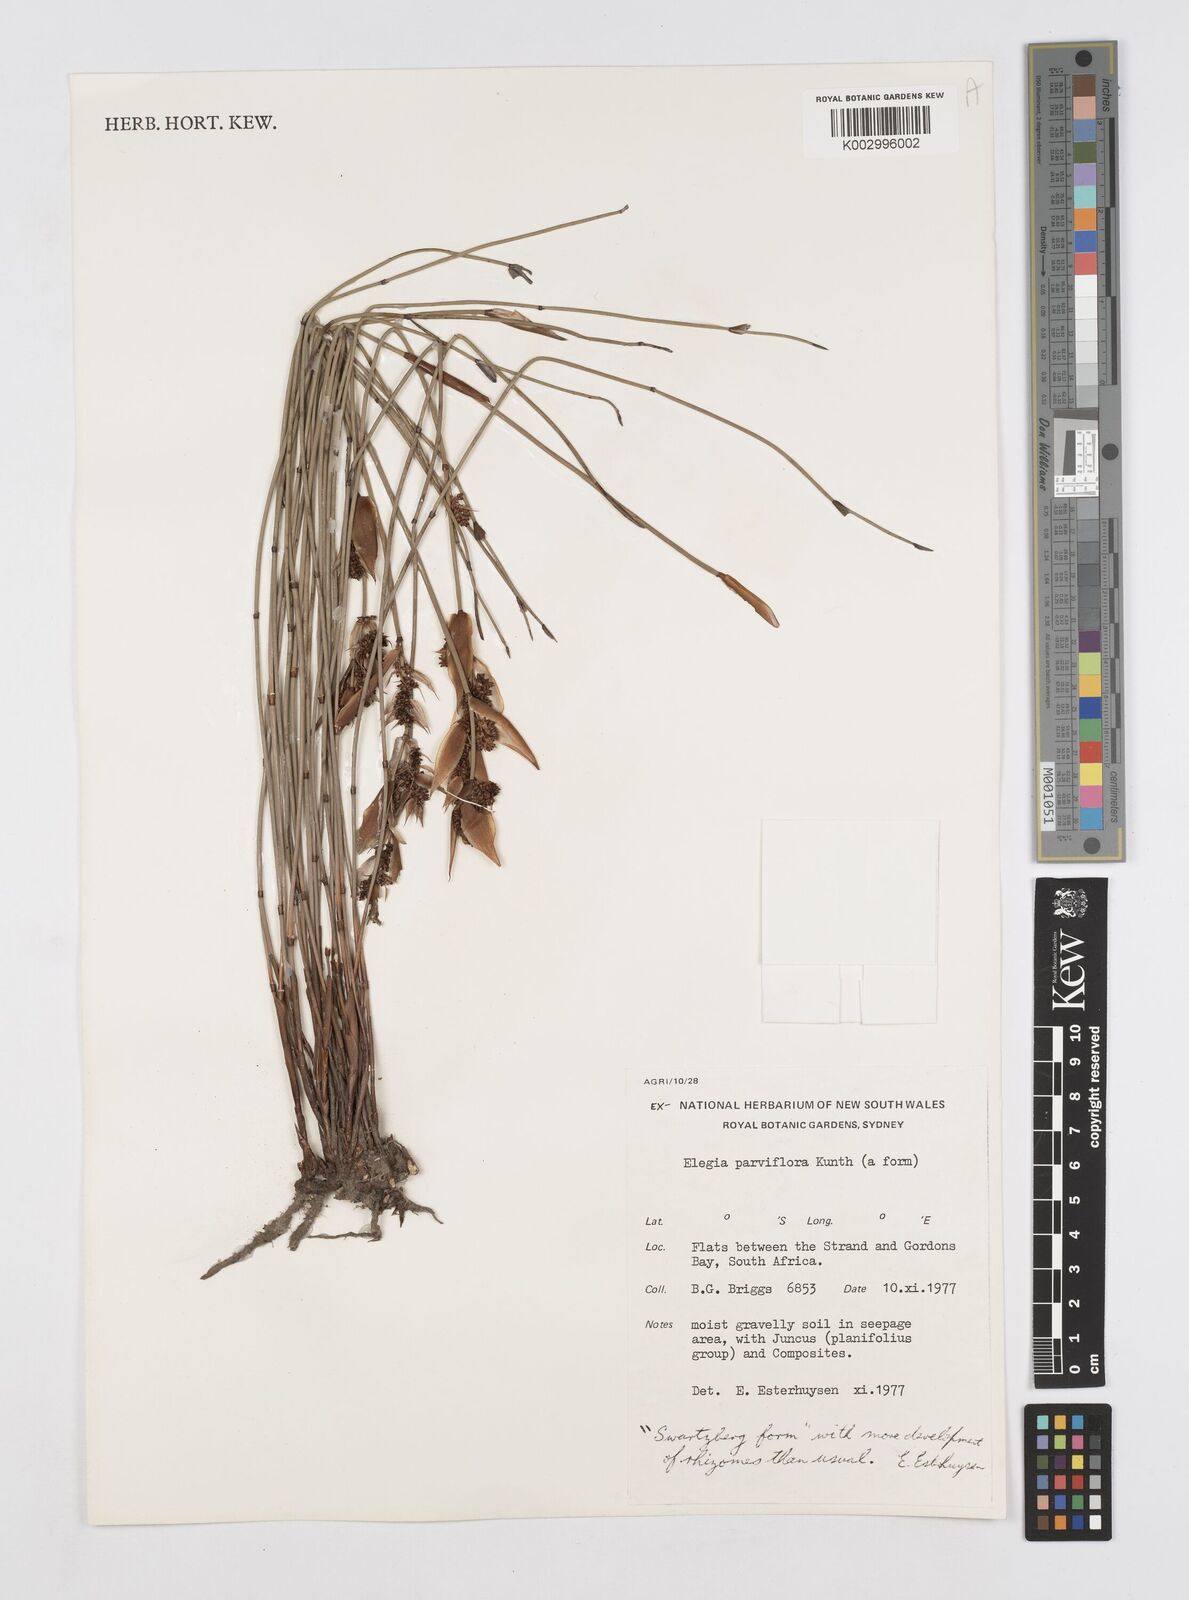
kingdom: Plantae
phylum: Tracheophyta
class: Liliopsida
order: Poales
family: Restionaceae
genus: Cannomois
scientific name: Cannomois parviflora
